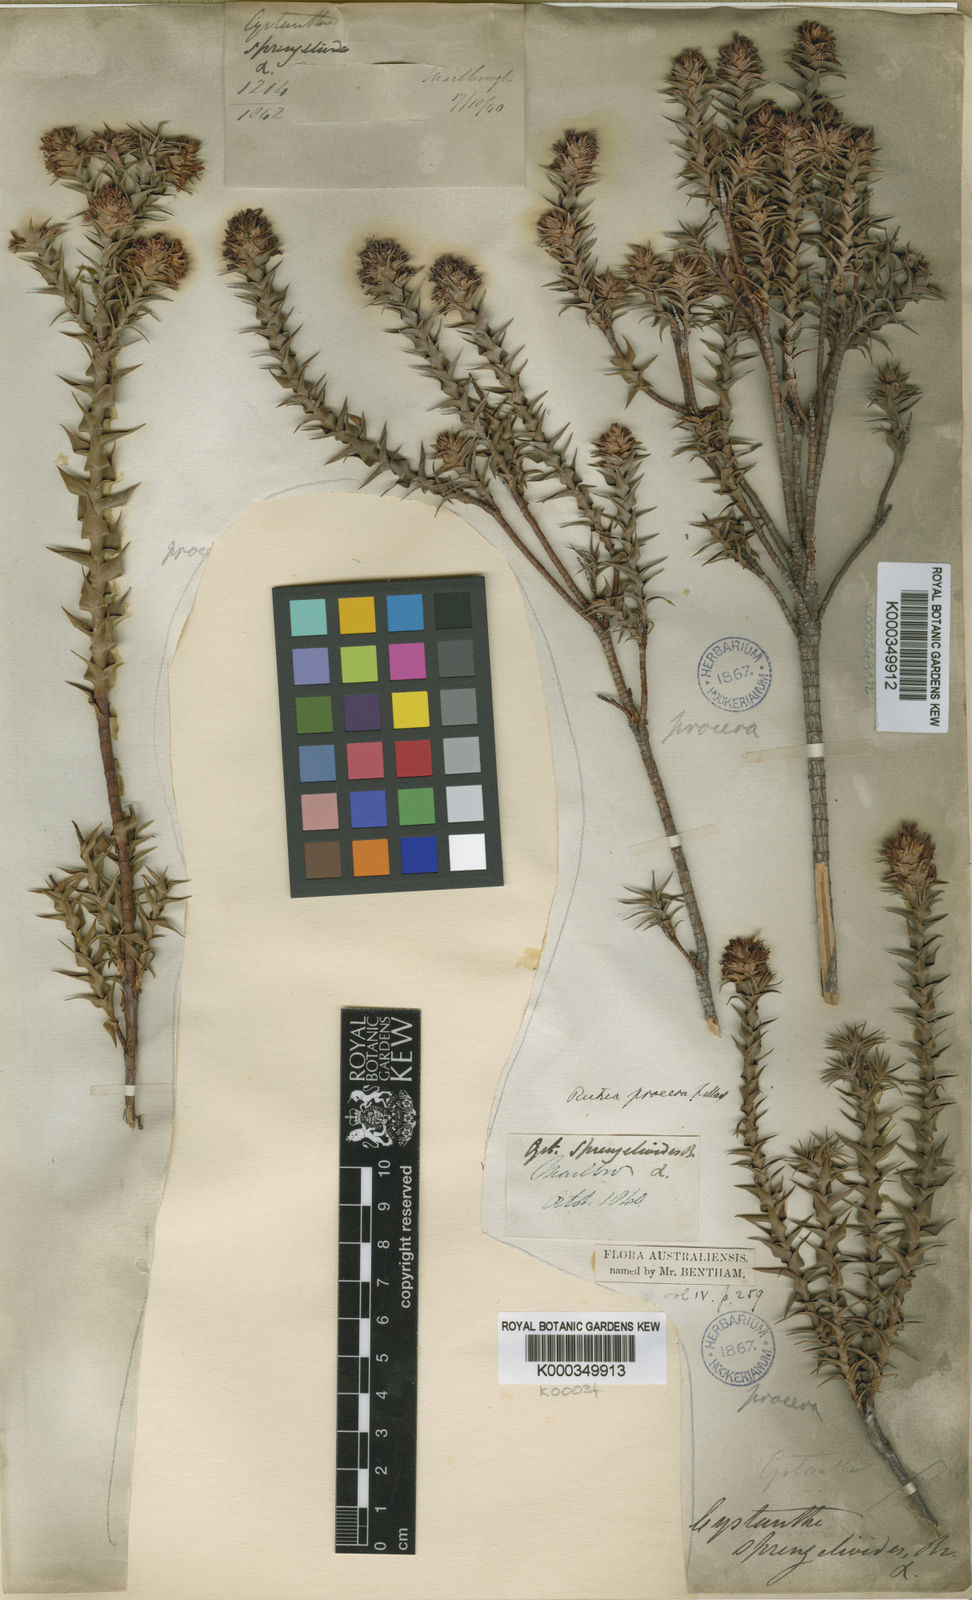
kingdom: Plantae
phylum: Tracheophyta
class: Magnoliopsida
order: Ericales
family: Ericaceae
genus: Dracophyllum
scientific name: Dracophyllum procerum
